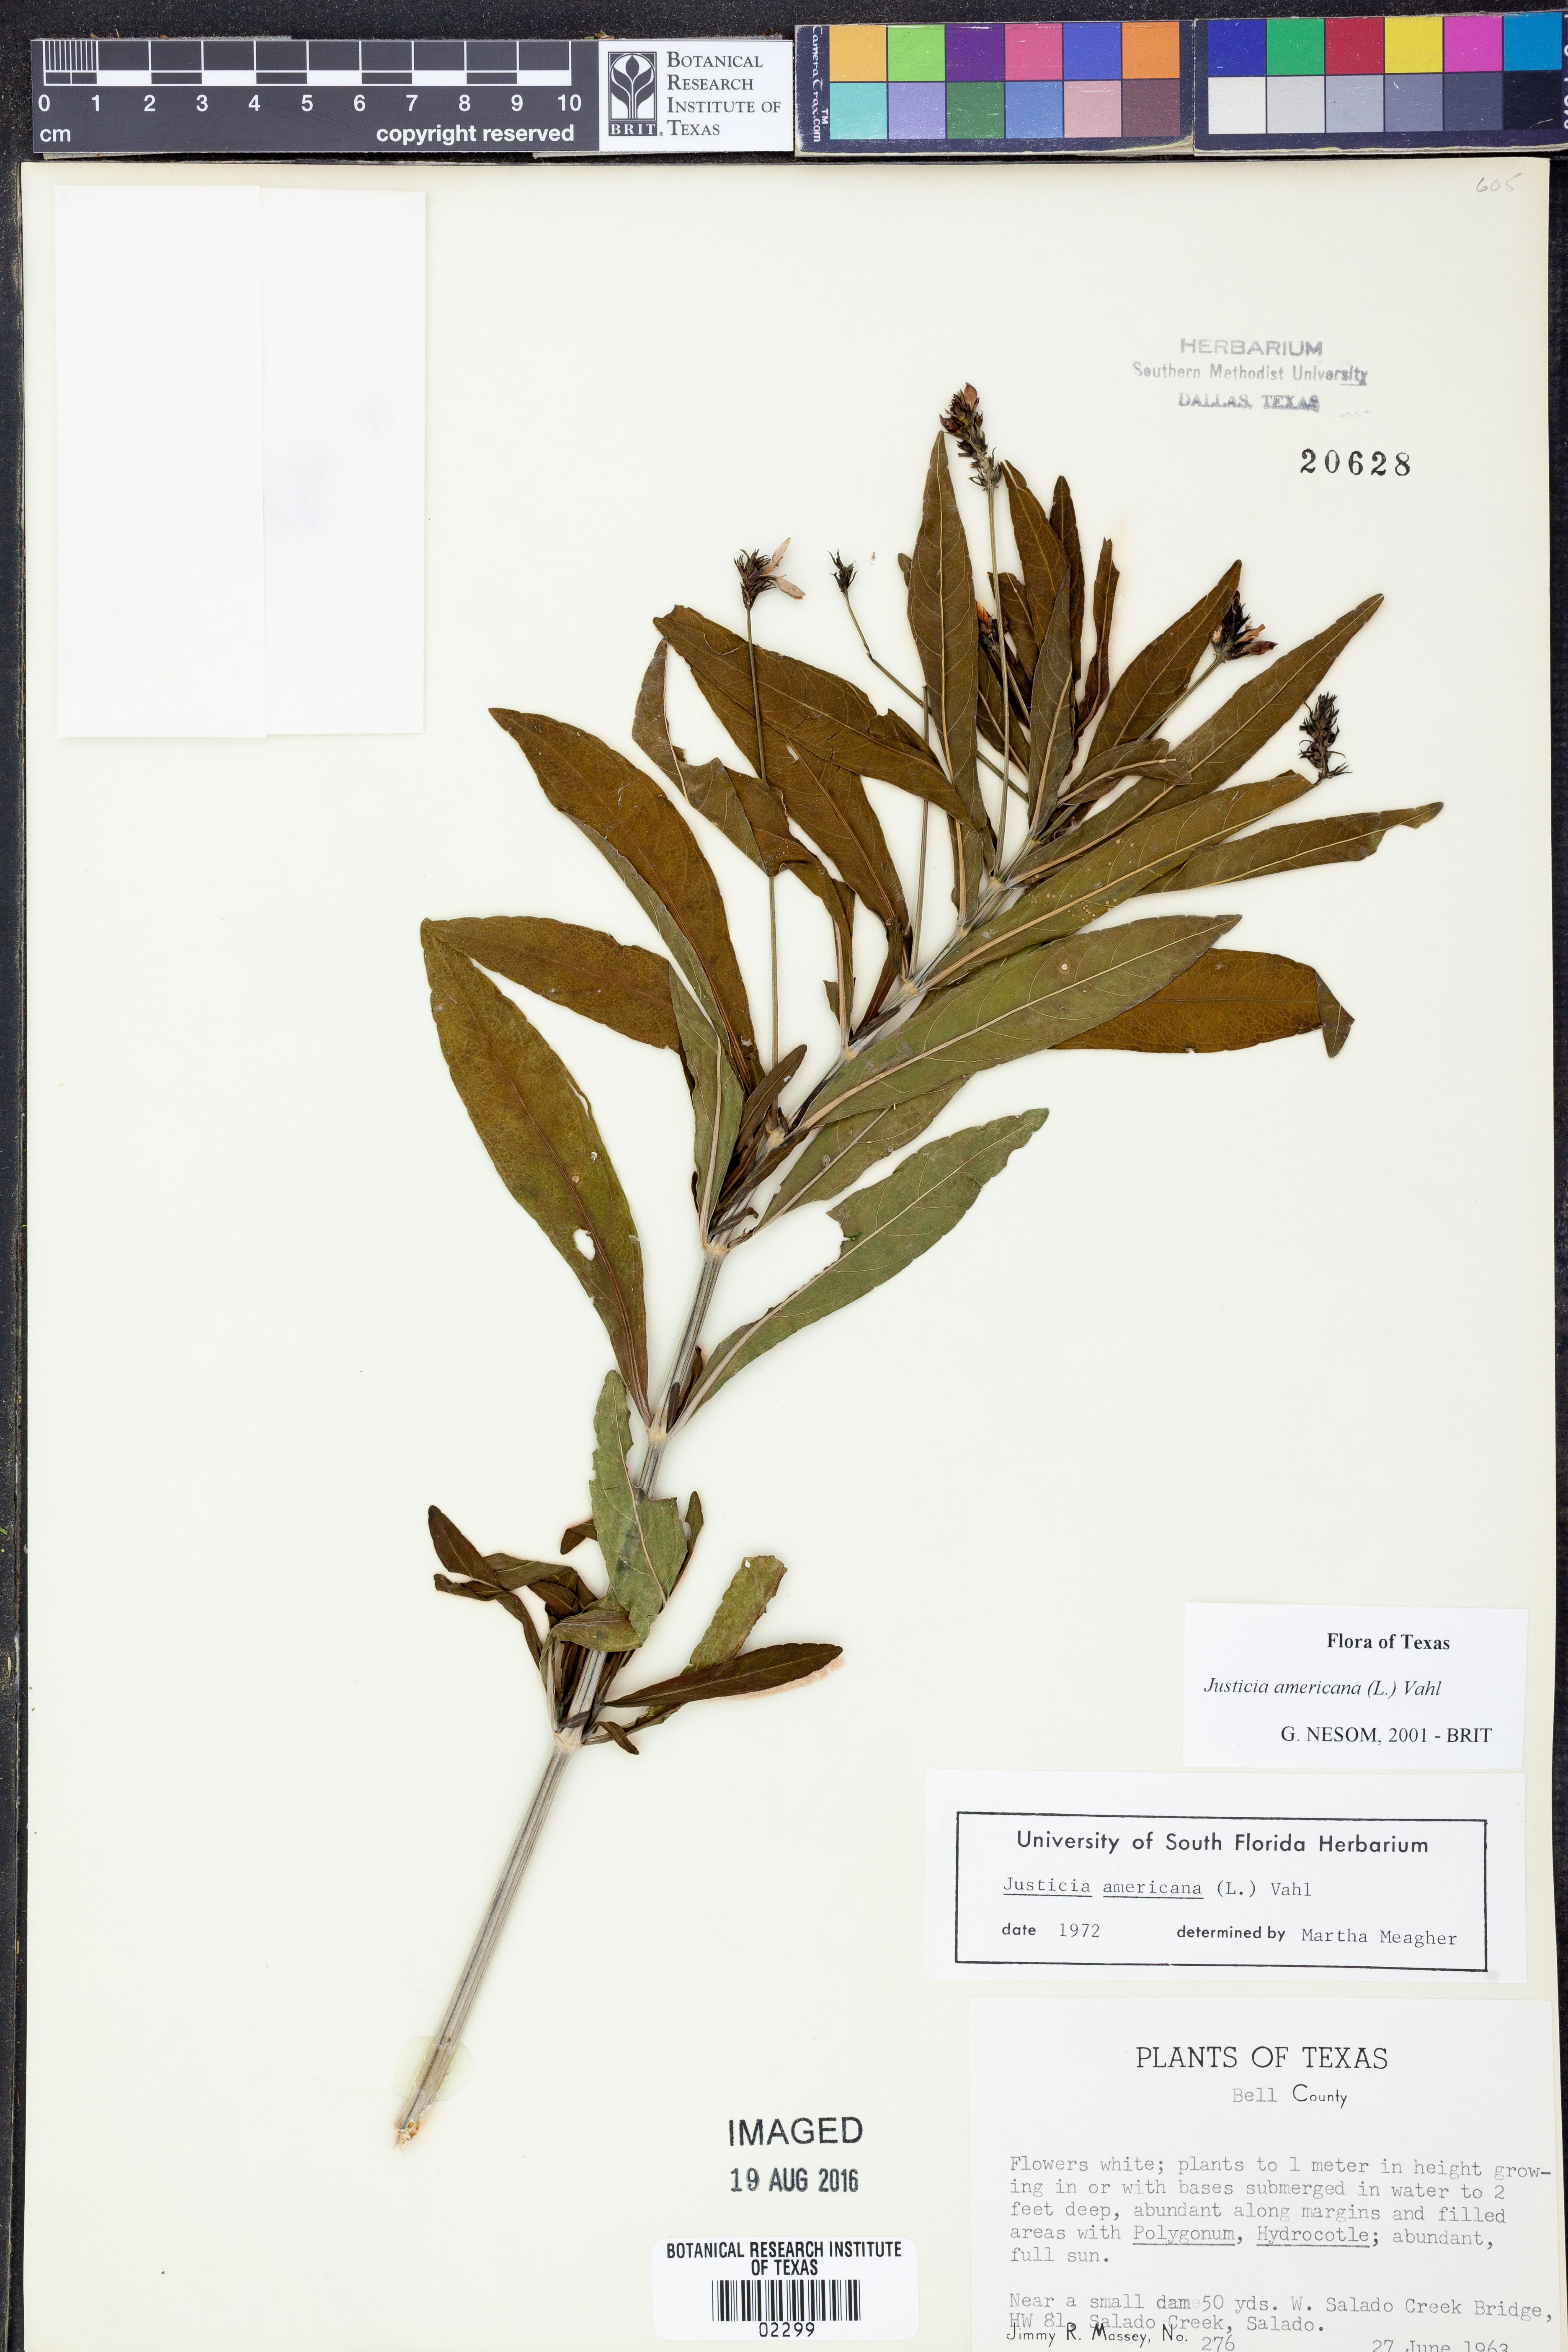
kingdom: Plantae
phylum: Tracheophyta
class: Magnoliopsida
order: Lamiales
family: Acanthaceae
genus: Dianthera
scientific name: Dianthera americana
